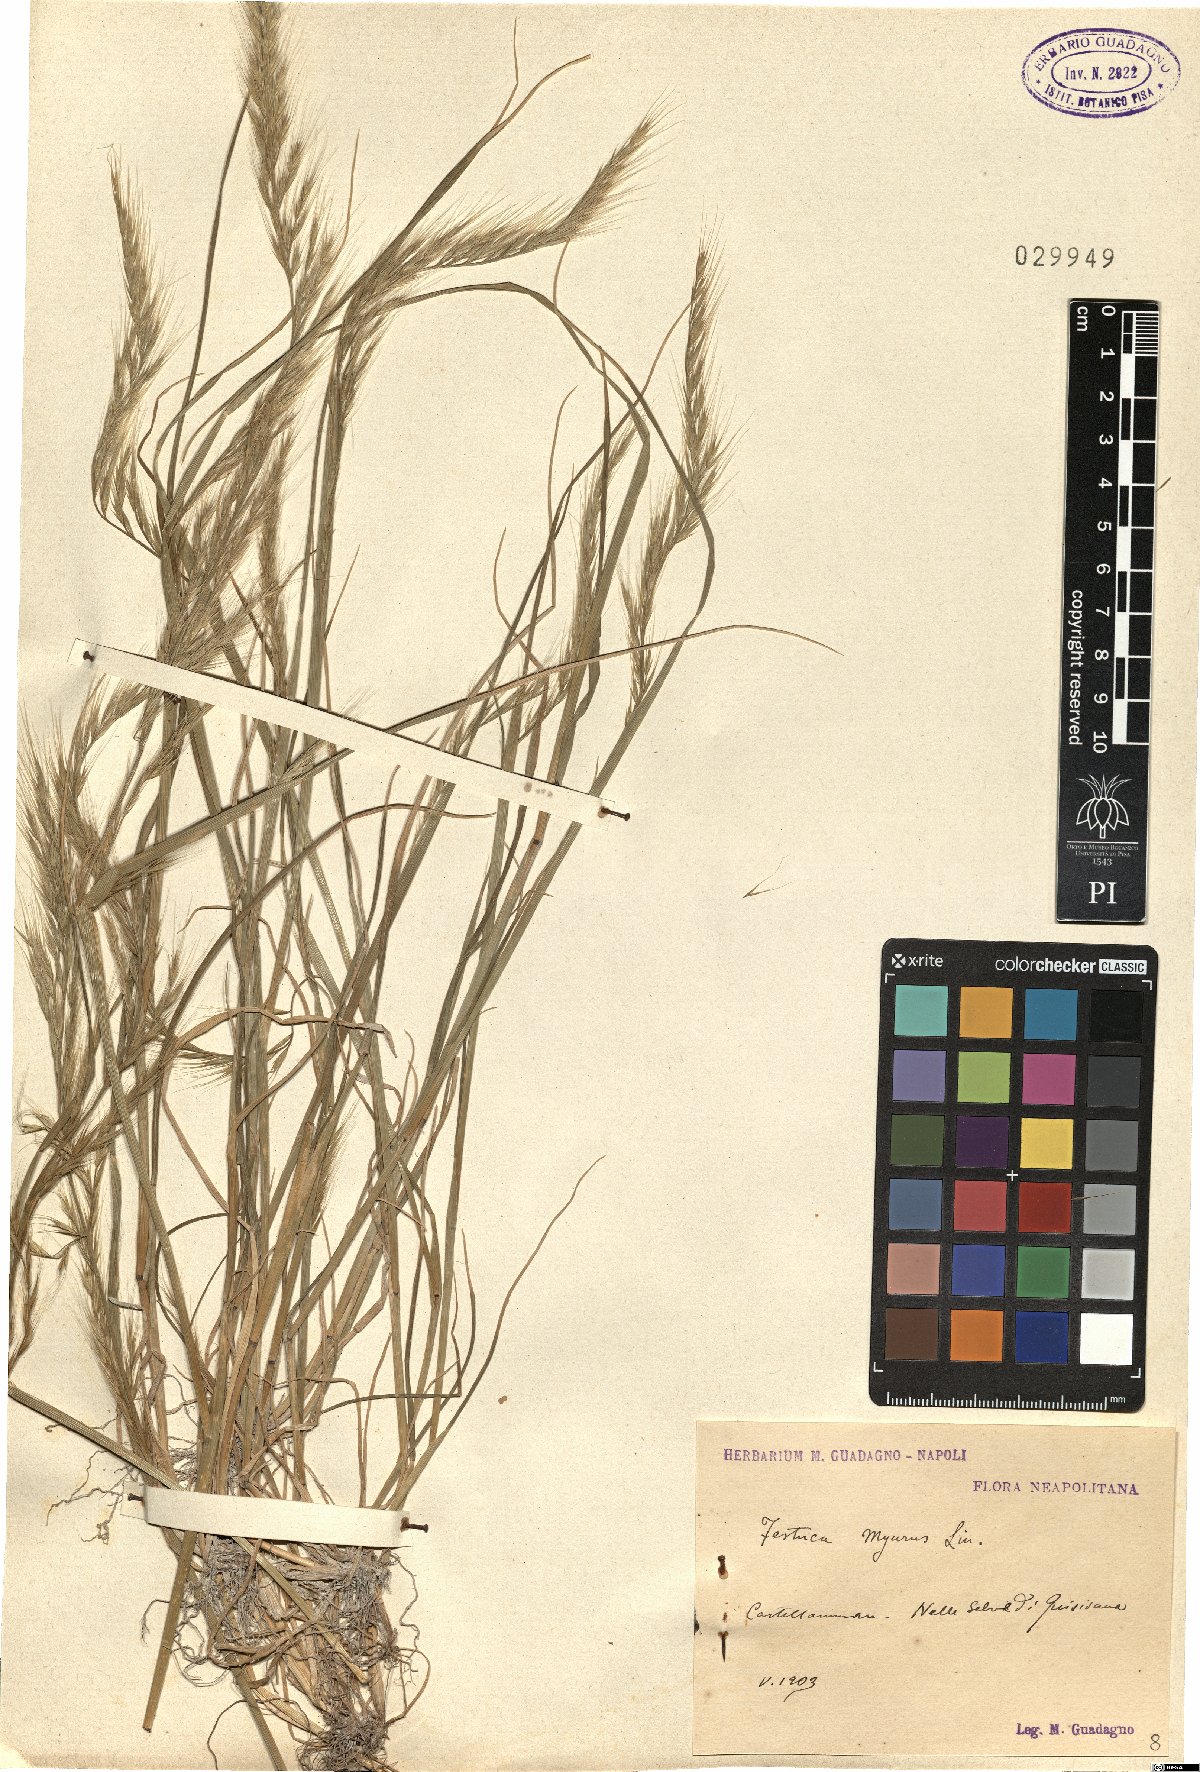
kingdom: Plantae
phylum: Tracheophyta
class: Liliopsida
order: Poales
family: Poaceae
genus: Festuca
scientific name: Festuca myuros
